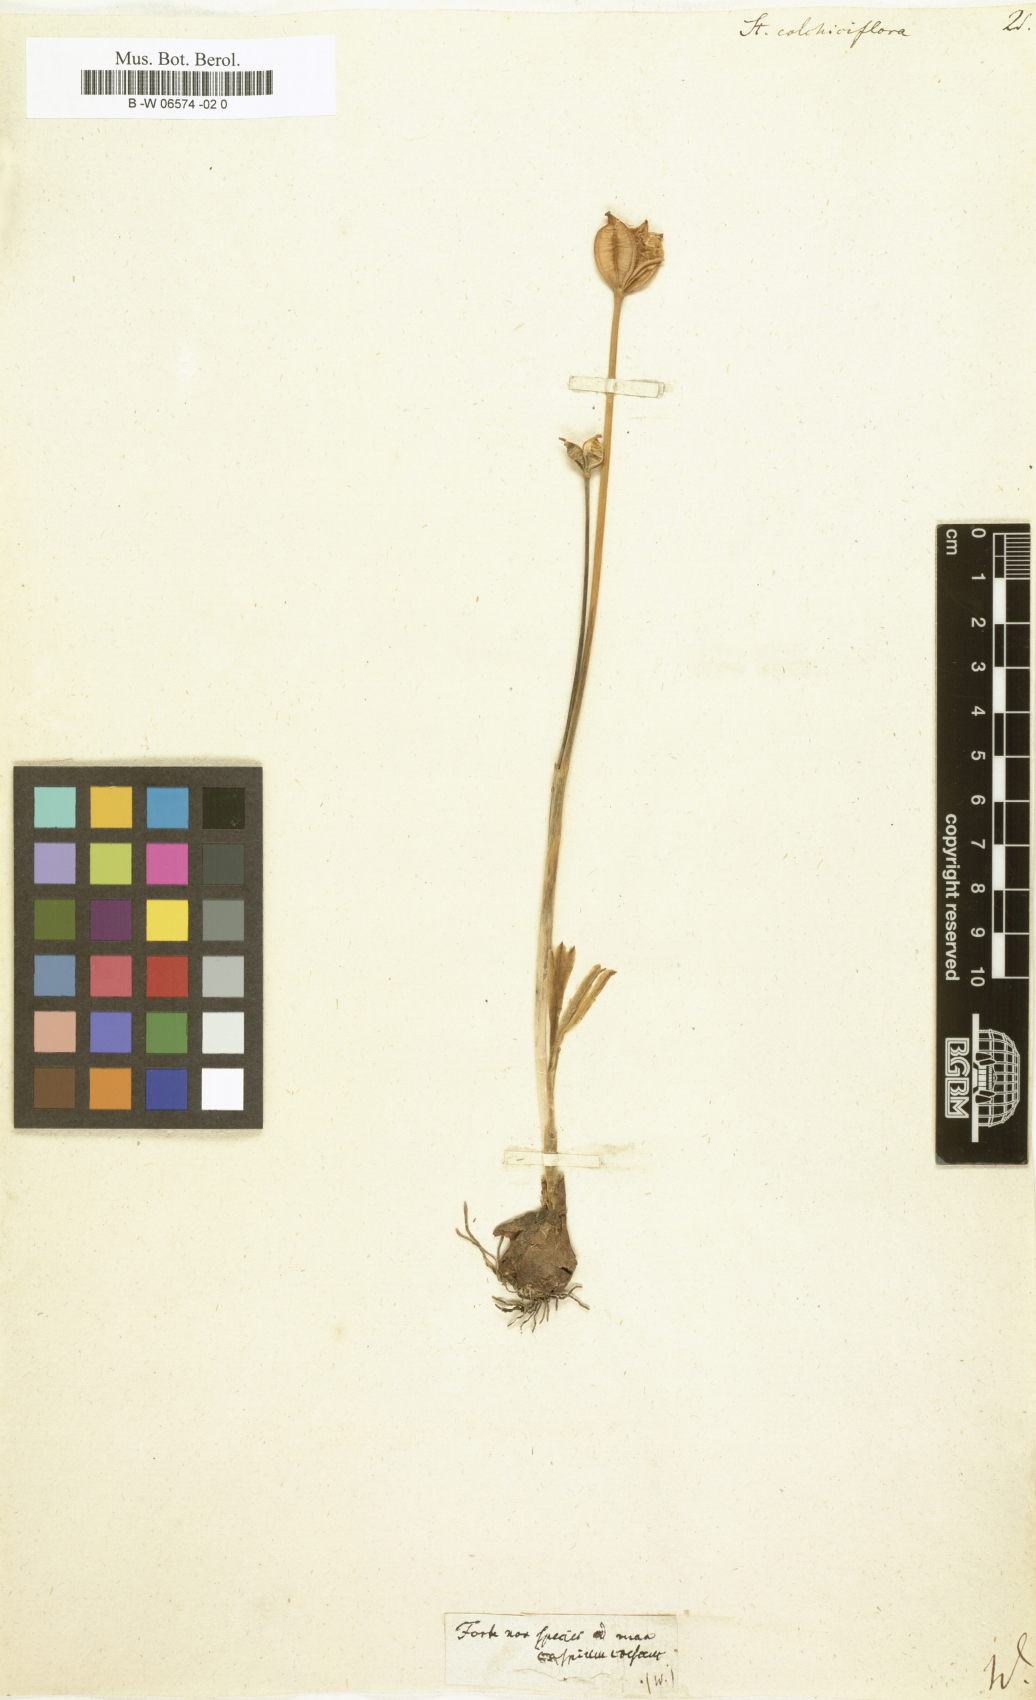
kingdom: Plantae
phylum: Tracheophyta
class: Liliopsida
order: Asparagales
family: Amaryllidaceae
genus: Sternbergia
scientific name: Sternbergia colchiciflora
